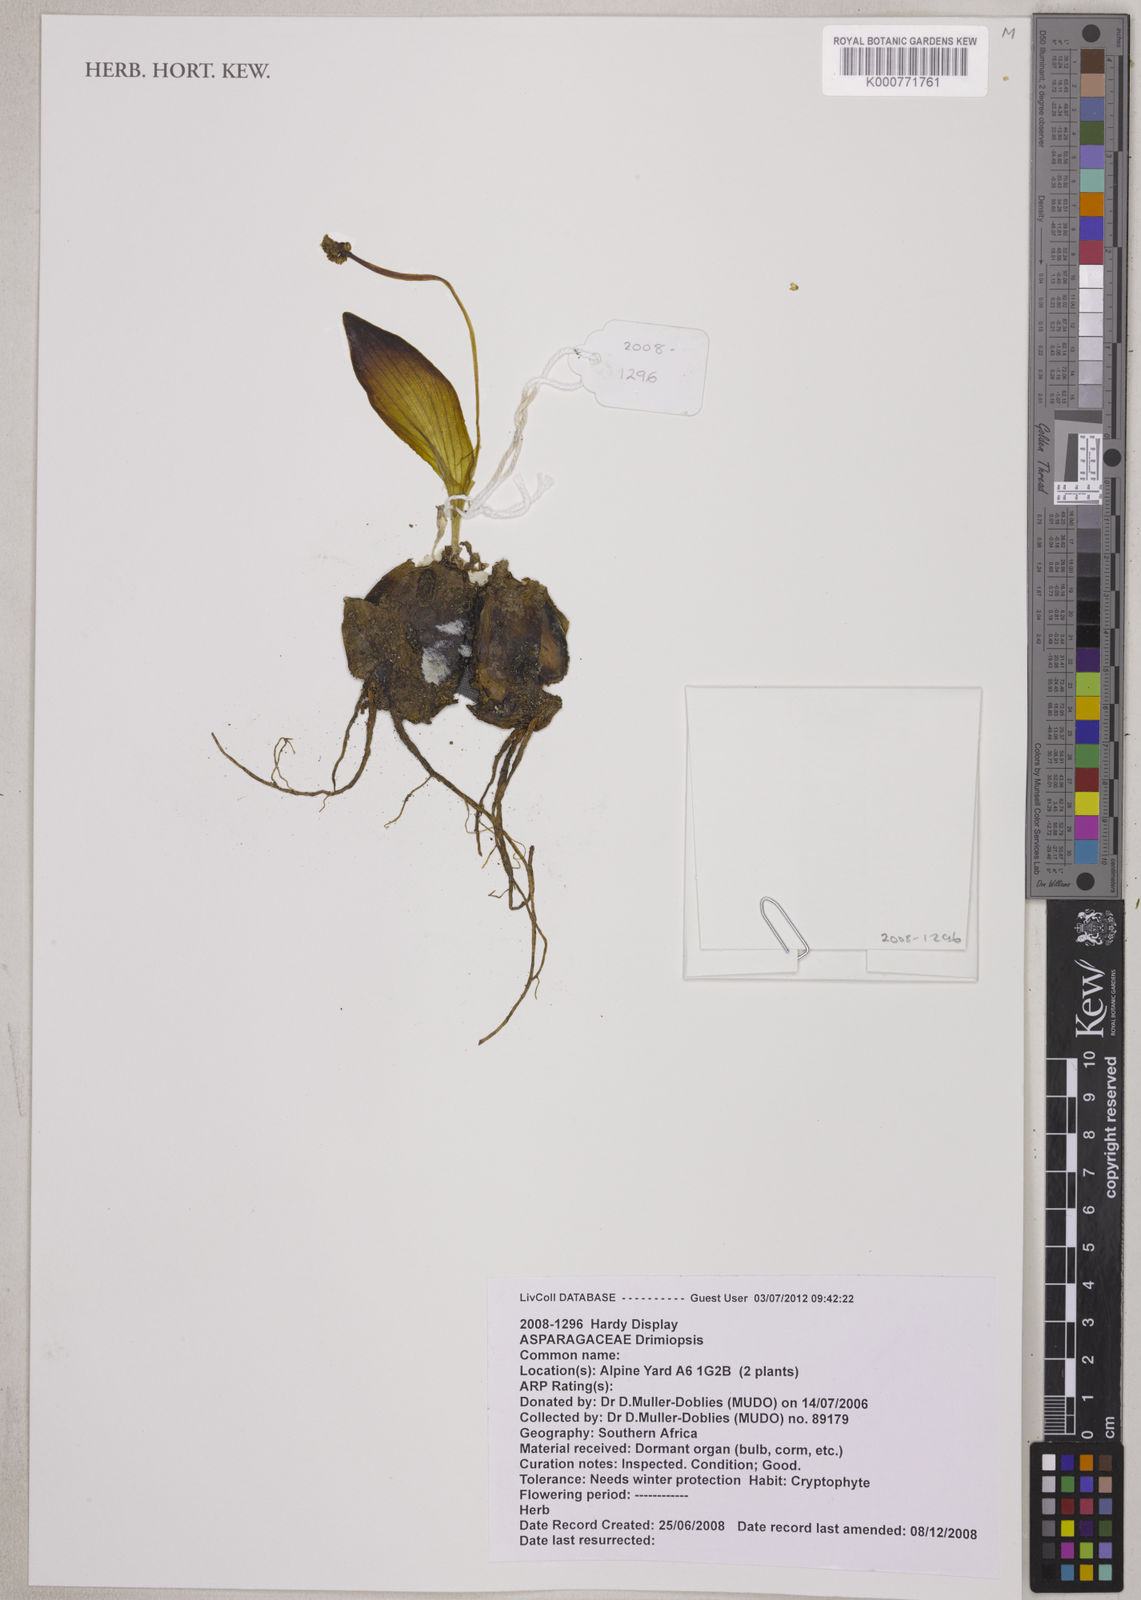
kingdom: Plantae
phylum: Tracheophyta
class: Liliopsida
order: Asparagales
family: Asparagaceae
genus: Drimiopsis
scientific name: Drimiopsis burkei
